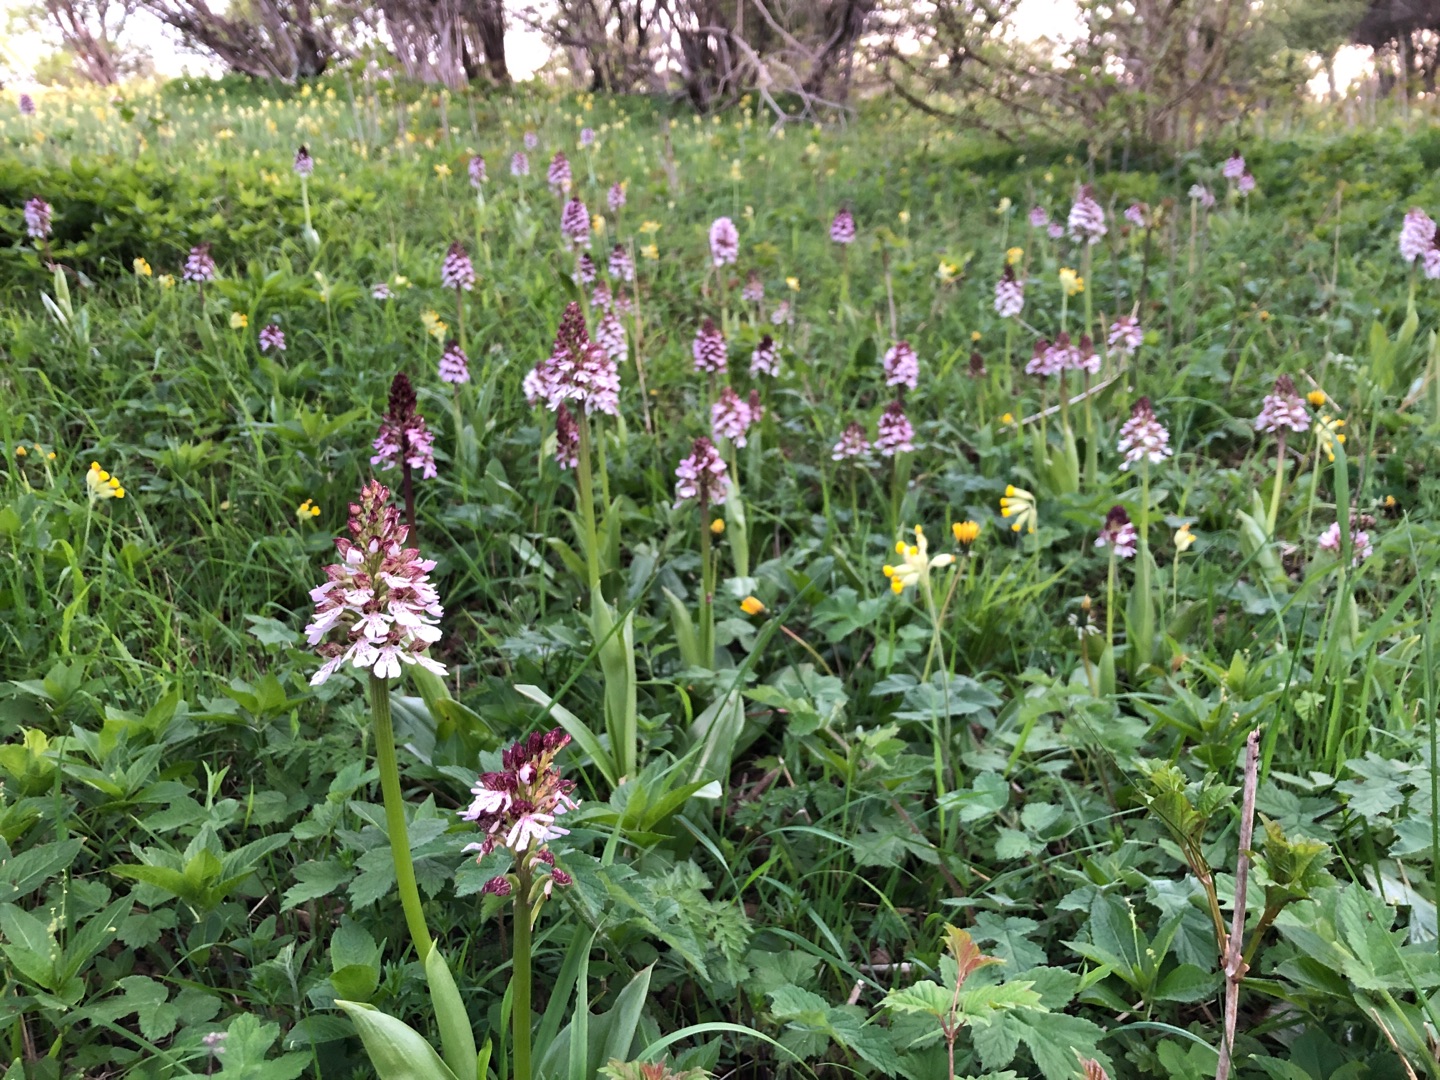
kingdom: Plantae
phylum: Tracheophyta
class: Liliopsida
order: Asparagales
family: Orchidaceae
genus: Orchis
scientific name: Orchis purpurea
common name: Stor gøgeurt
